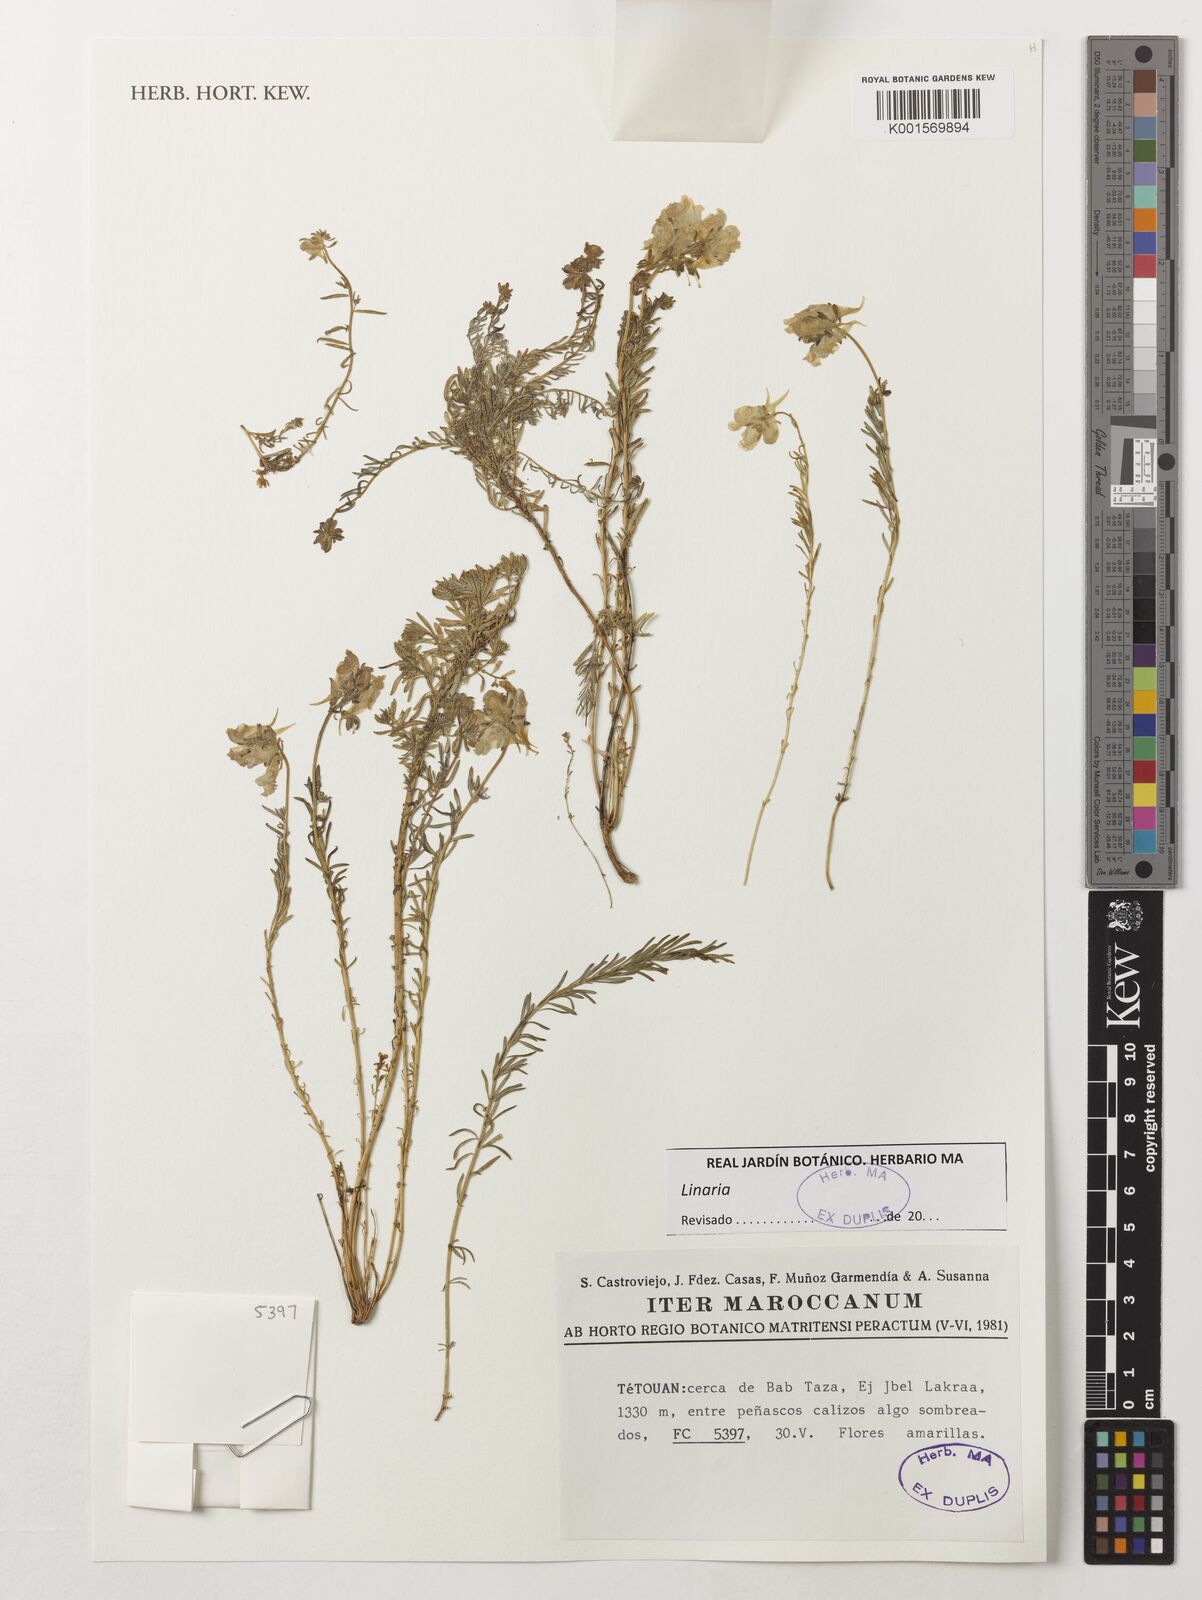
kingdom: Plantae
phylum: Tracheophyta
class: Magnoliopsida
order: Lamiales
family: Plantaginaceae
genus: Linaria
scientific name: Linaria
